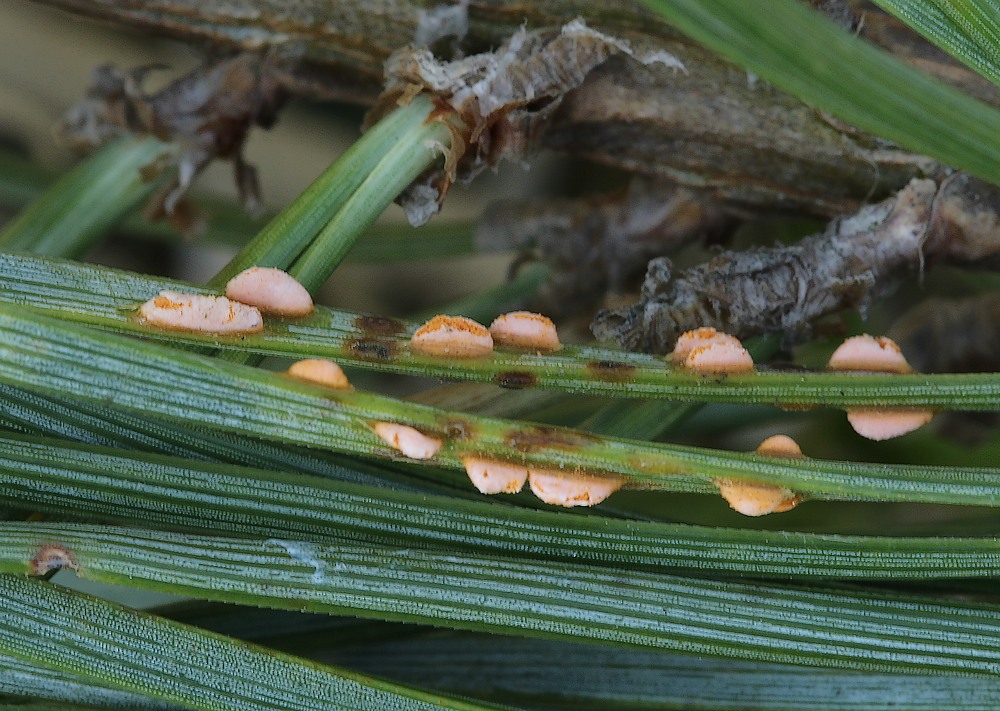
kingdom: Fungi
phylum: Basidiomycota
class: Pucciniomycetes
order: Pucciniales
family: Coleosporiaceae
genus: Coleosporium
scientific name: Coleosporium tussilaginis
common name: almindelig fyrrenålerust
